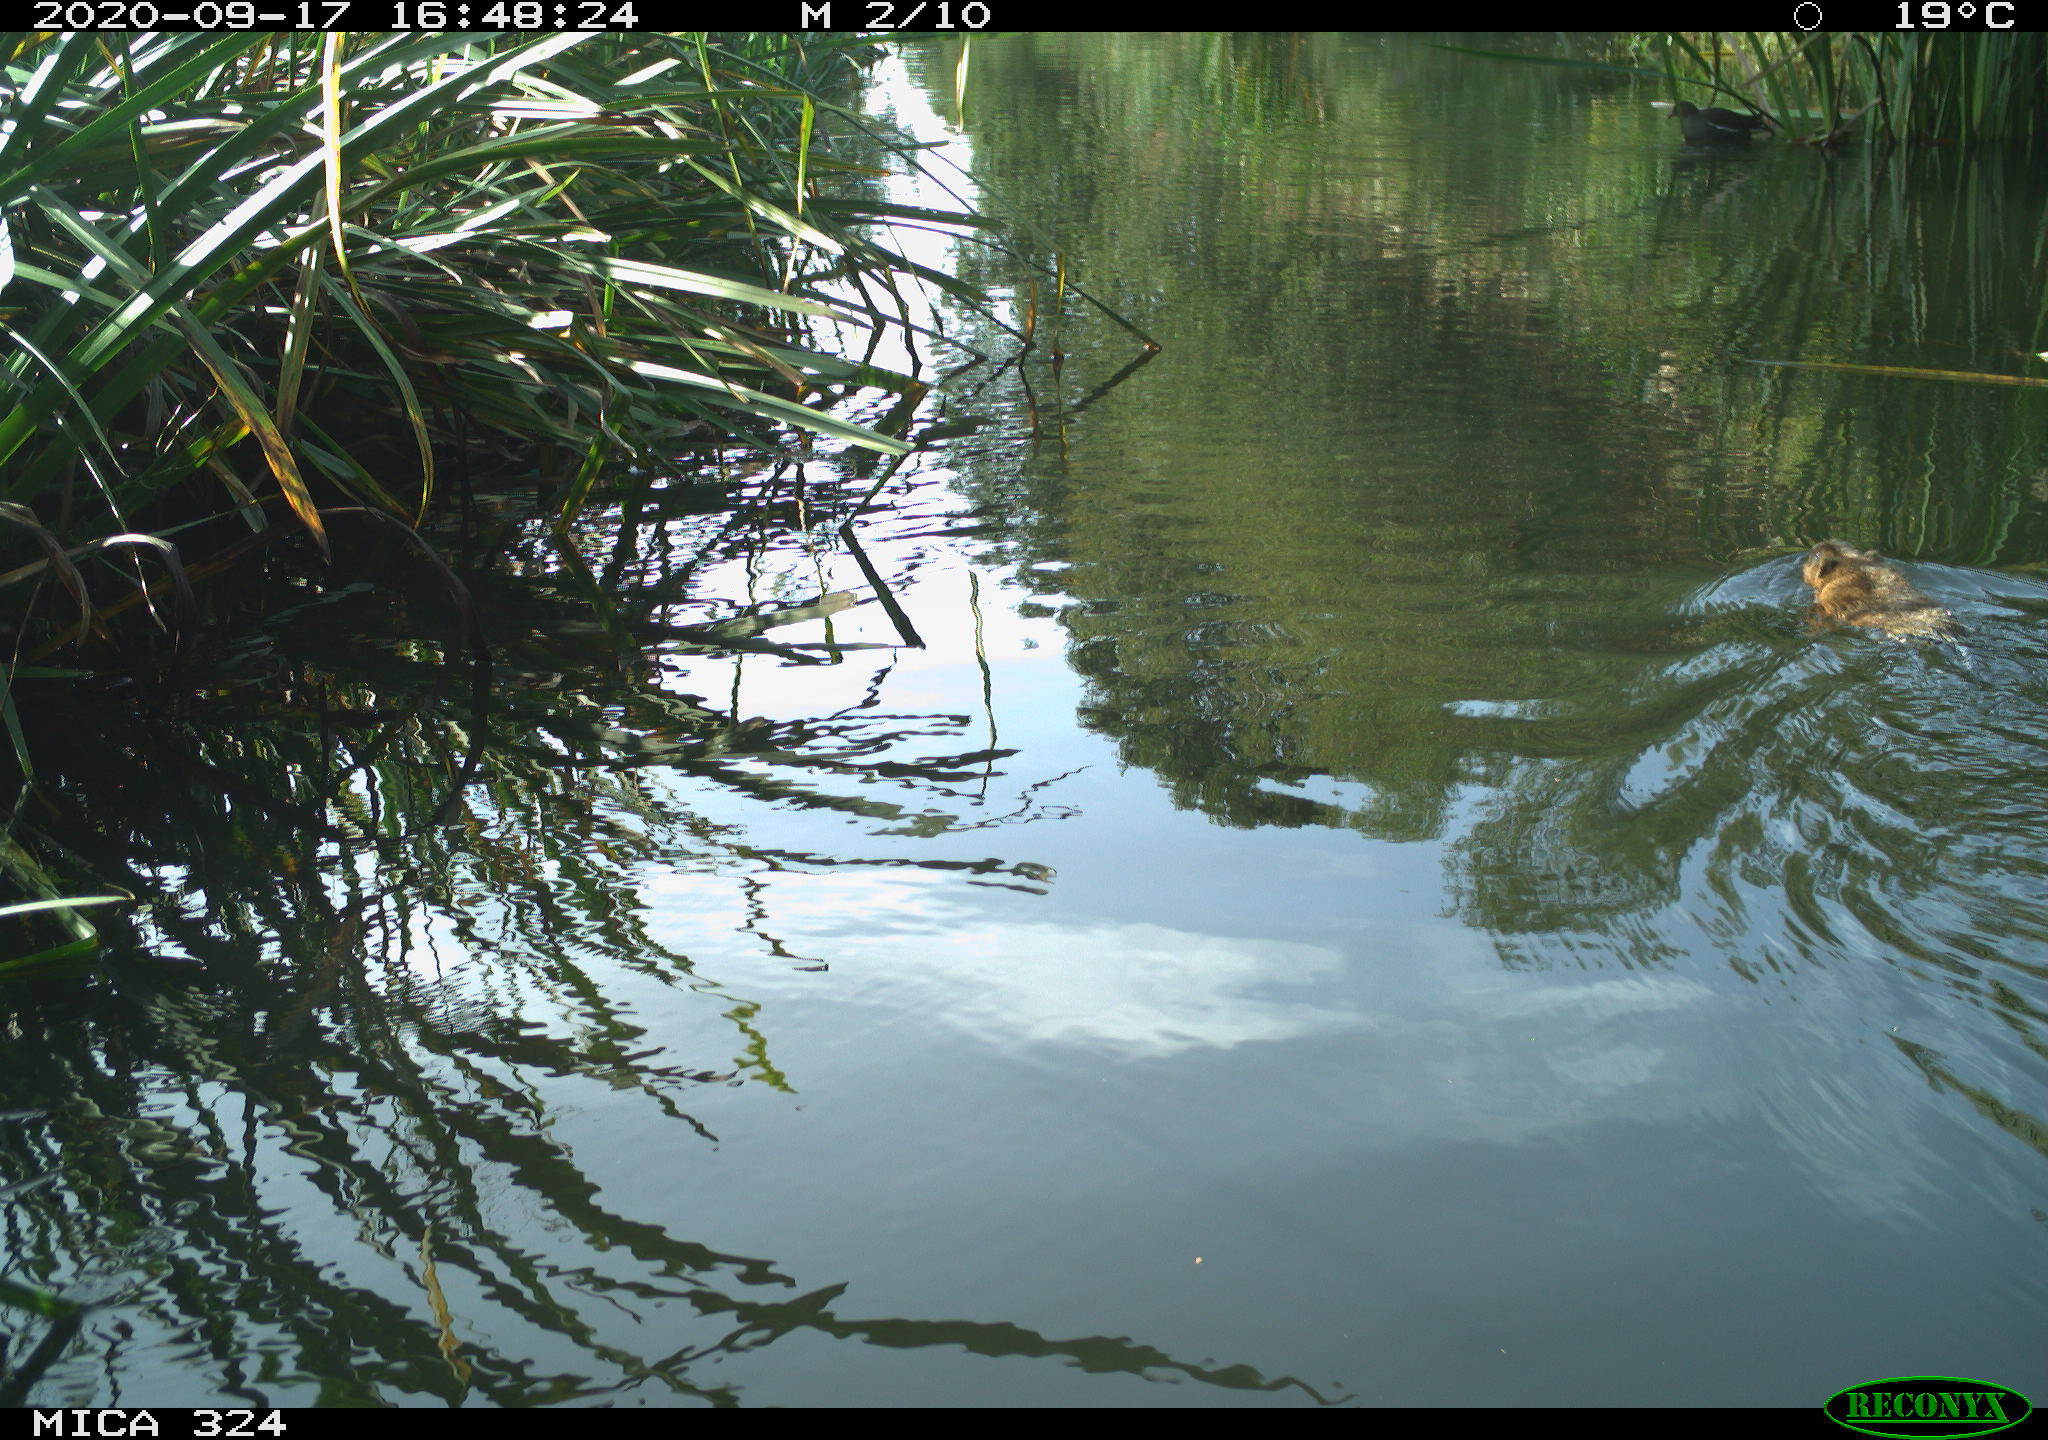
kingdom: Animalia
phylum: Chordata
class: Mammalia
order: Rodentia
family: Cricetidae
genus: Ondatra
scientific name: Ondatra zibethicus
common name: Muskrat
